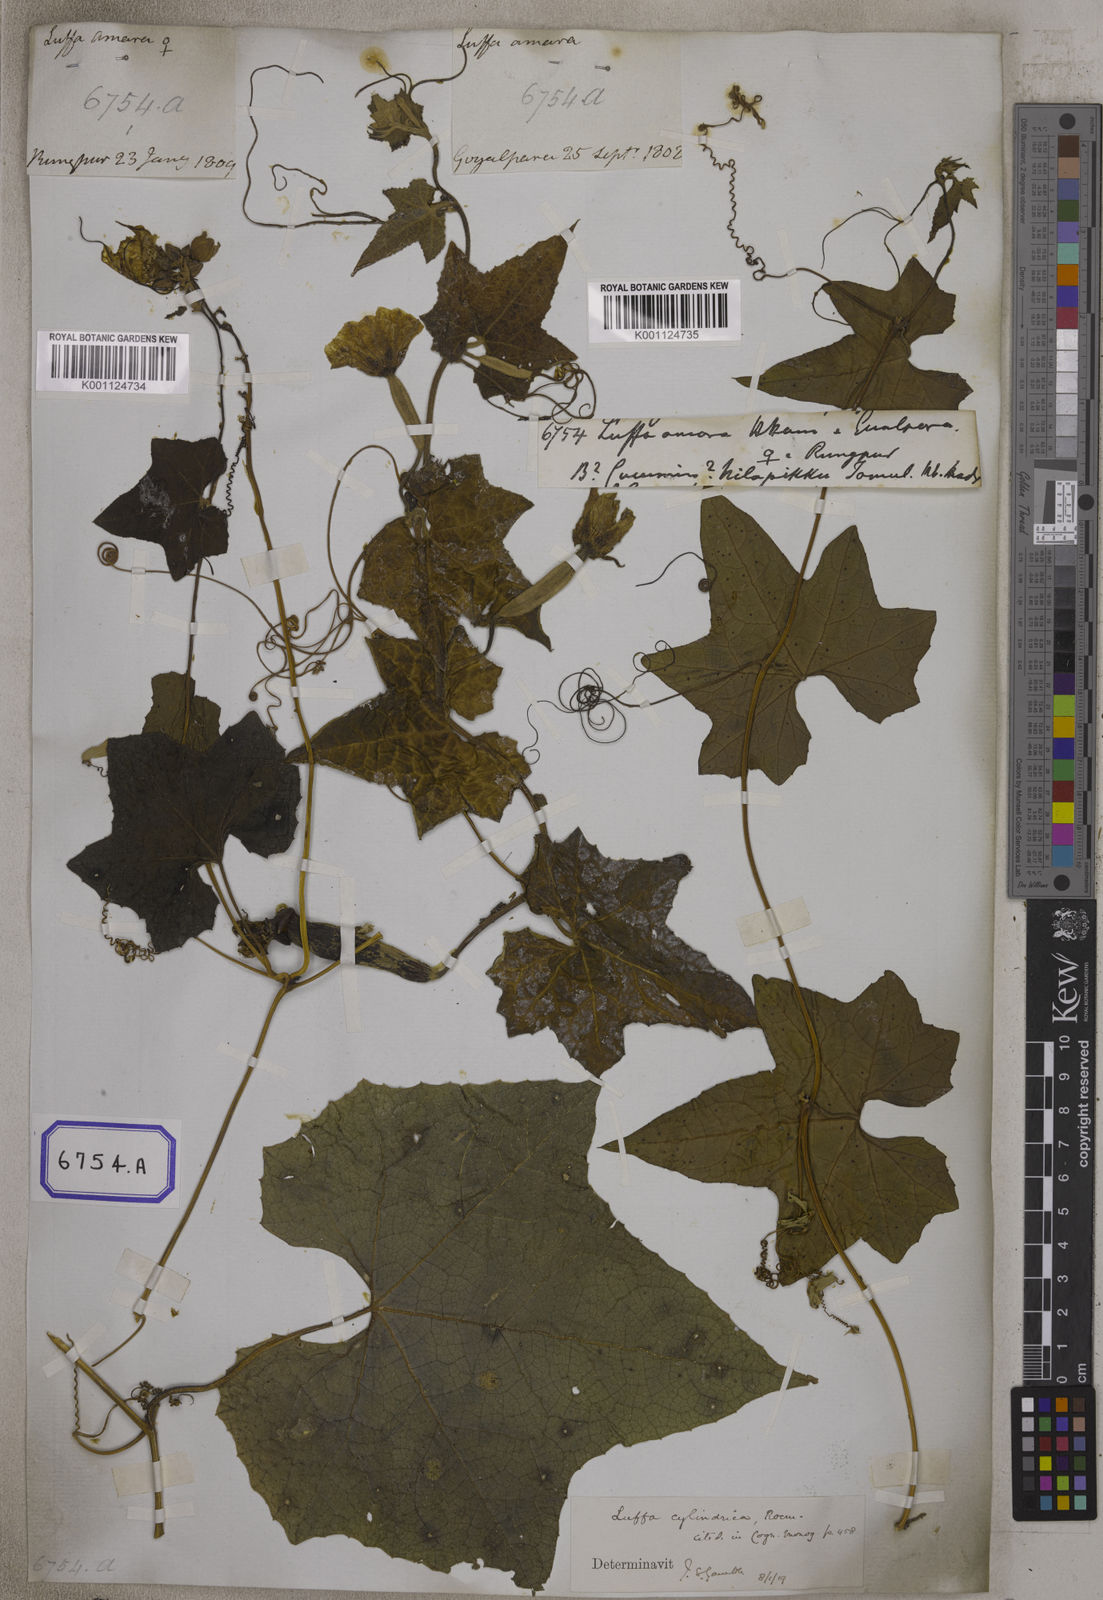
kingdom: Plantae
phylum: Tracheophyta
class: Magnoliopsida
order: Cucurbitales
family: Cucurbitaceae
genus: Luffa
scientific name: Luffa
